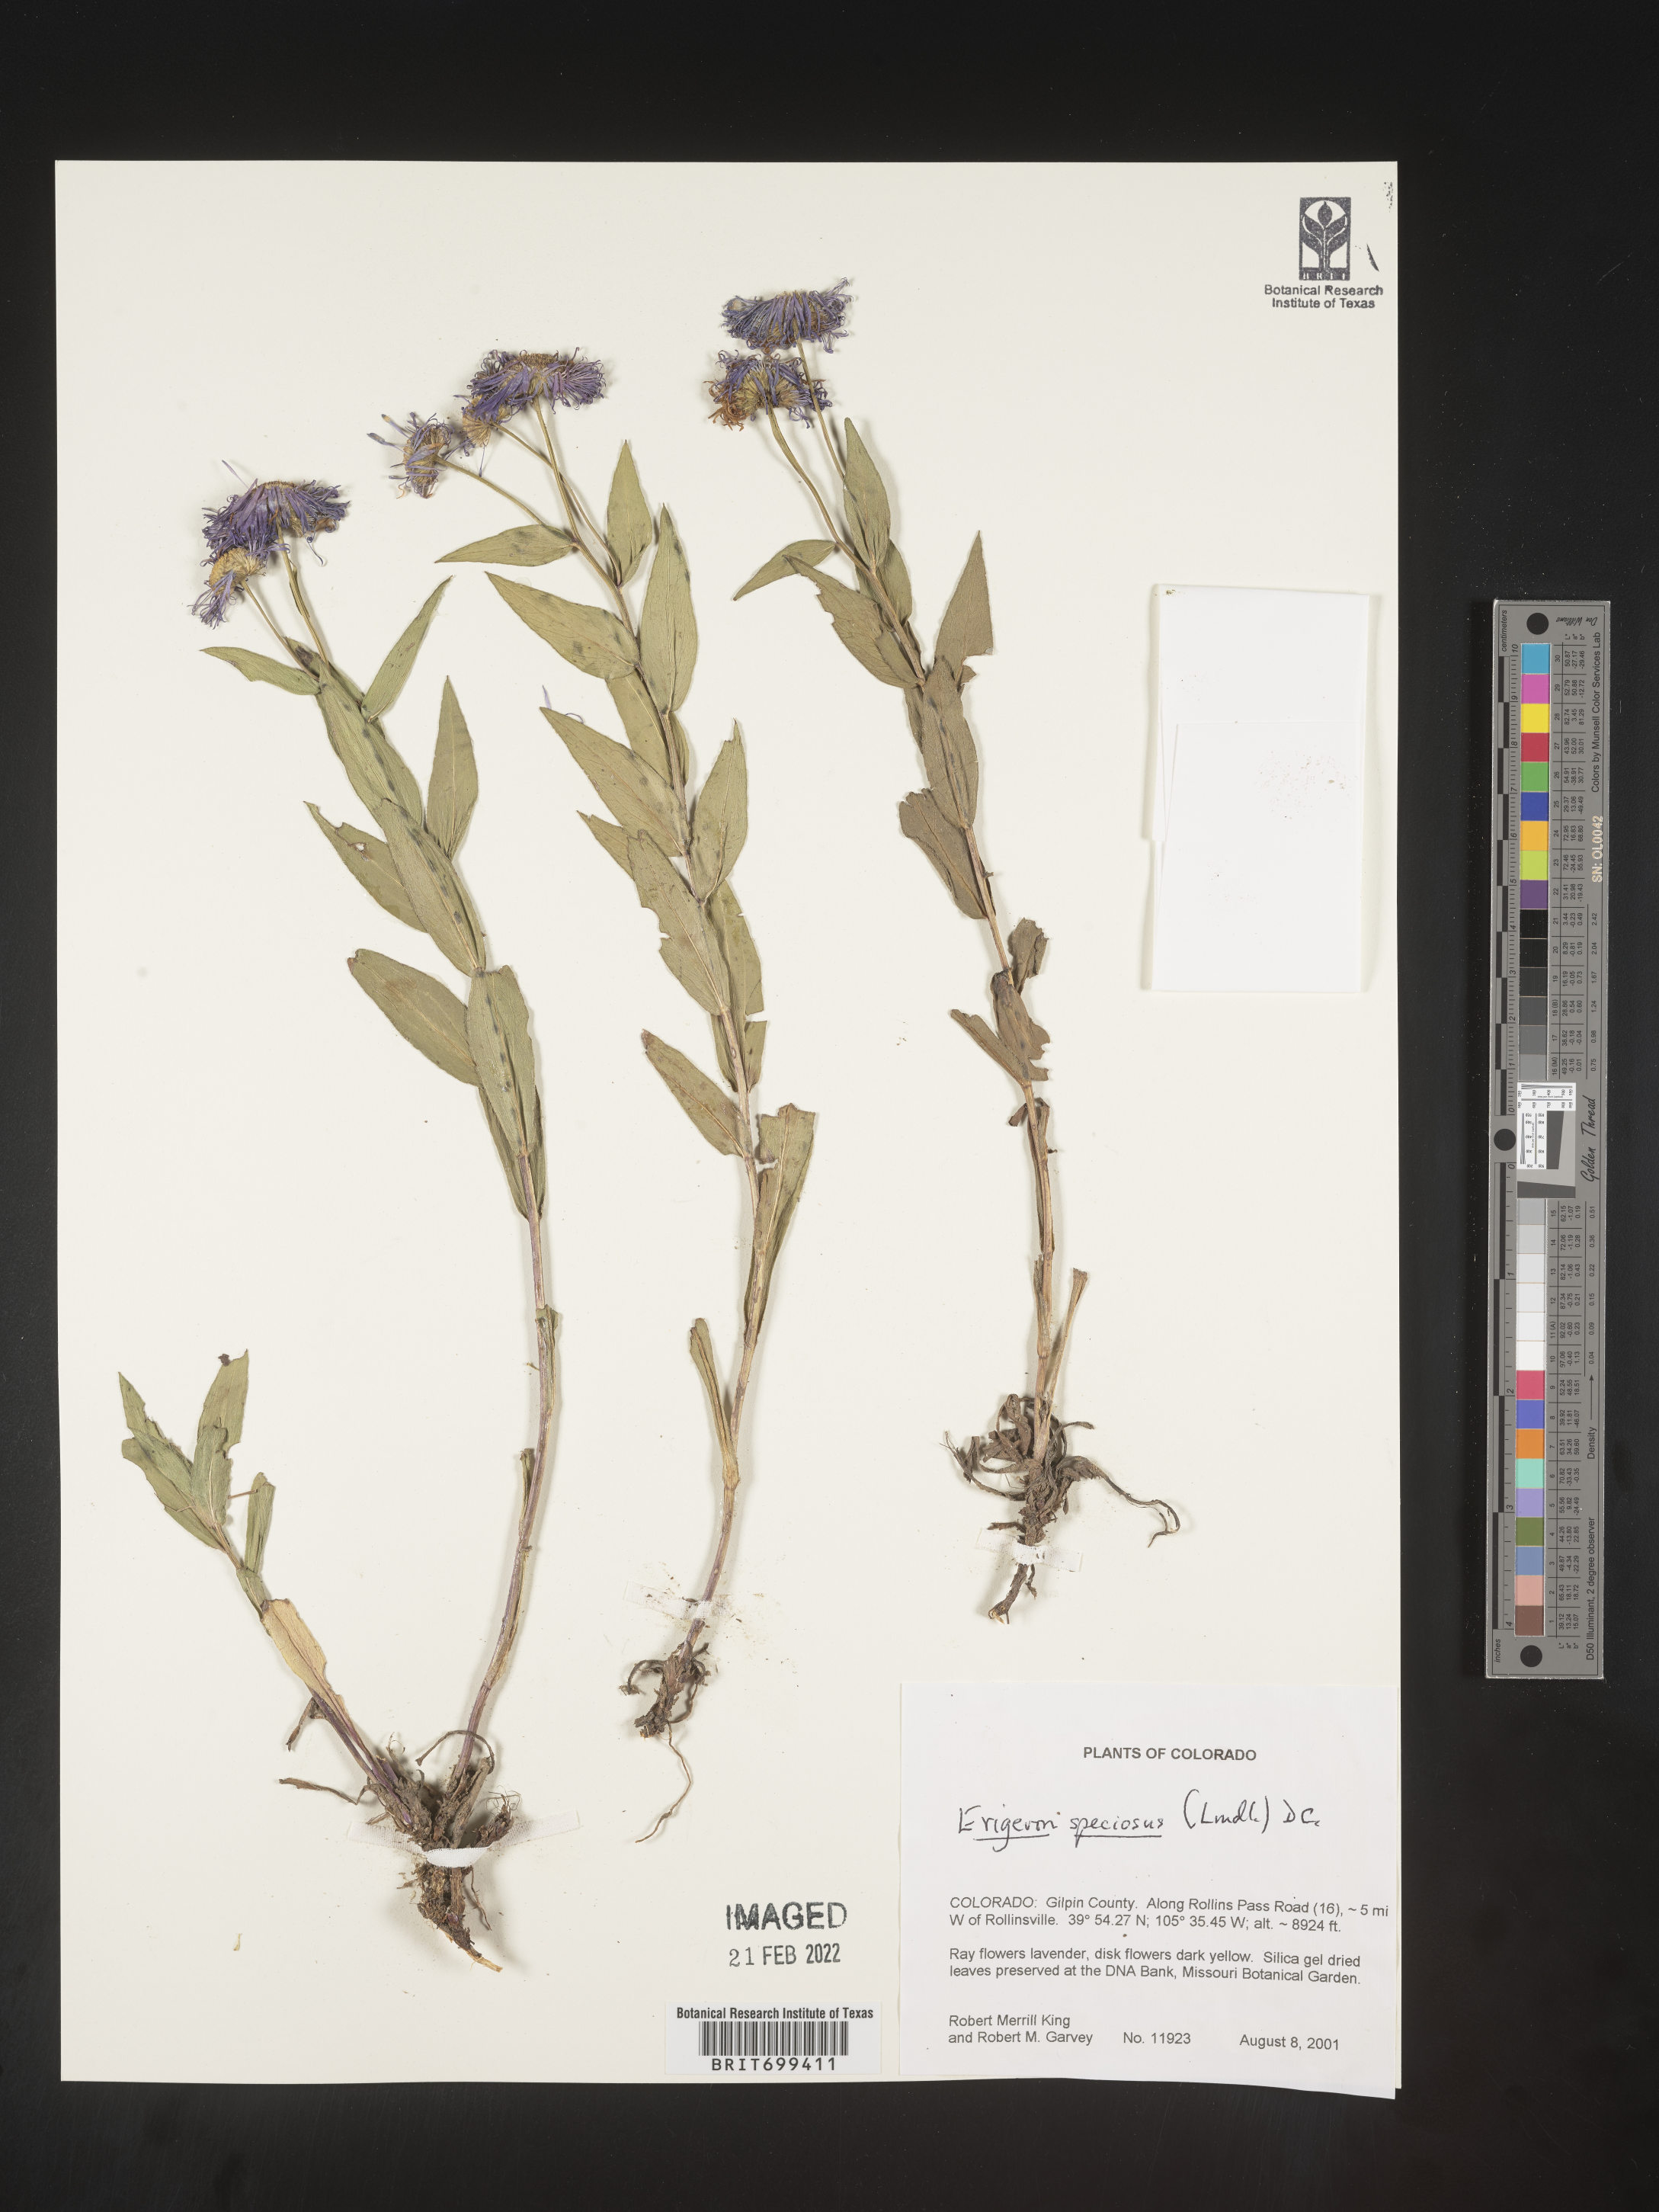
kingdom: Plantae
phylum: Tracheophyta
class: Magnoliopsida
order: Asterales
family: Asteraceae
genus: Erigeron
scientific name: Erigeron speciosus
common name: Aspen fleabane
